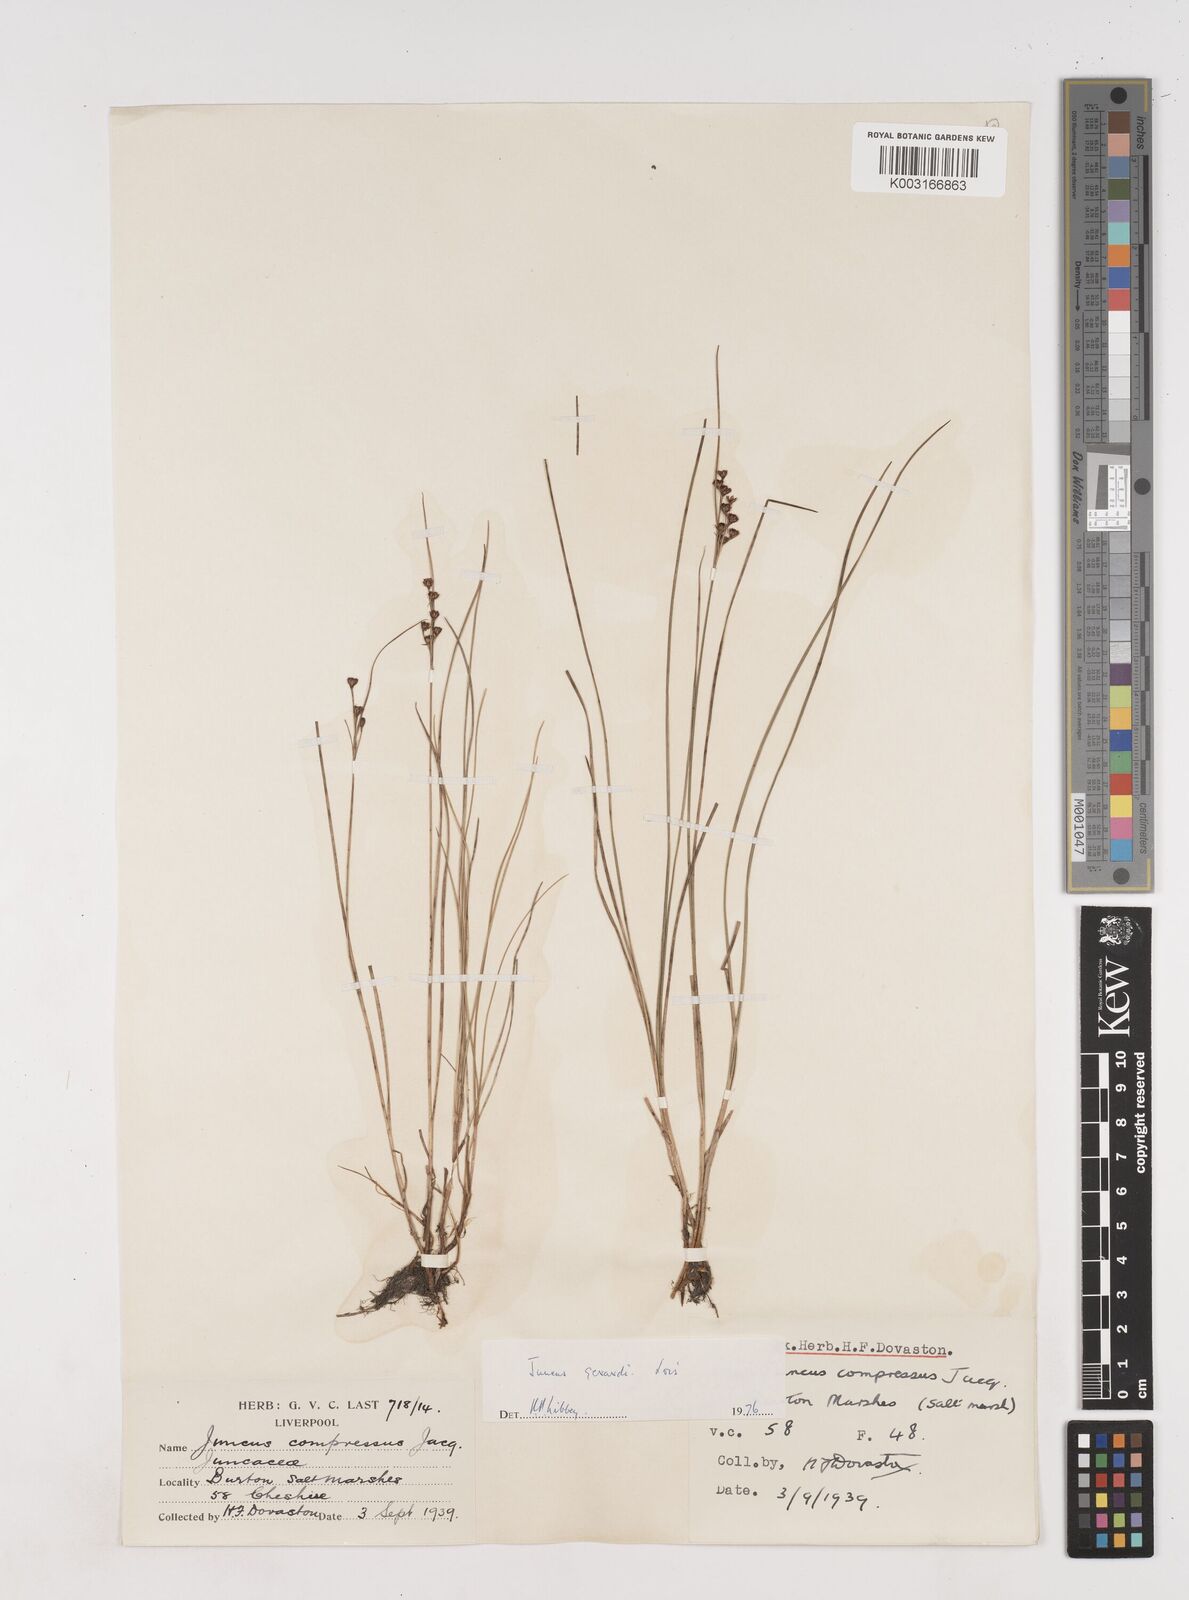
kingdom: Plantae
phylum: Tracheophyta
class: Liliopsida
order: Poales
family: Juncaceae
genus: Juncus
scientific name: Juncus gerardi
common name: Saltmarsh rush
